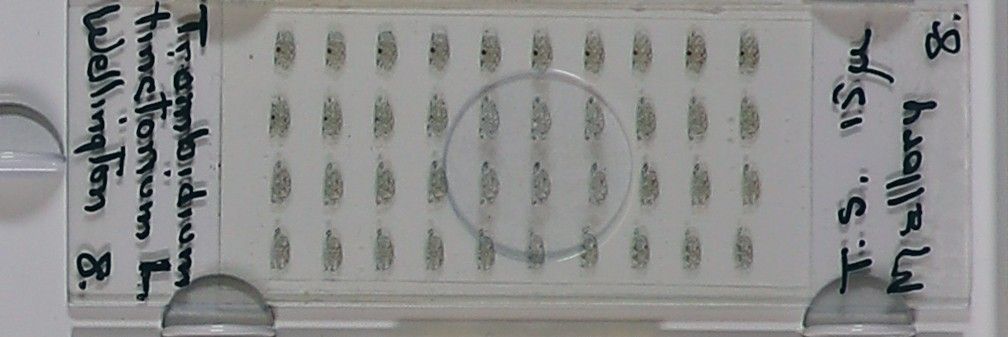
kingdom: Animalia
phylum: Arthropoda
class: Arachnida
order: Trombidiformes
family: Trombidiidae
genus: Trombidium
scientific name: Trombidium
